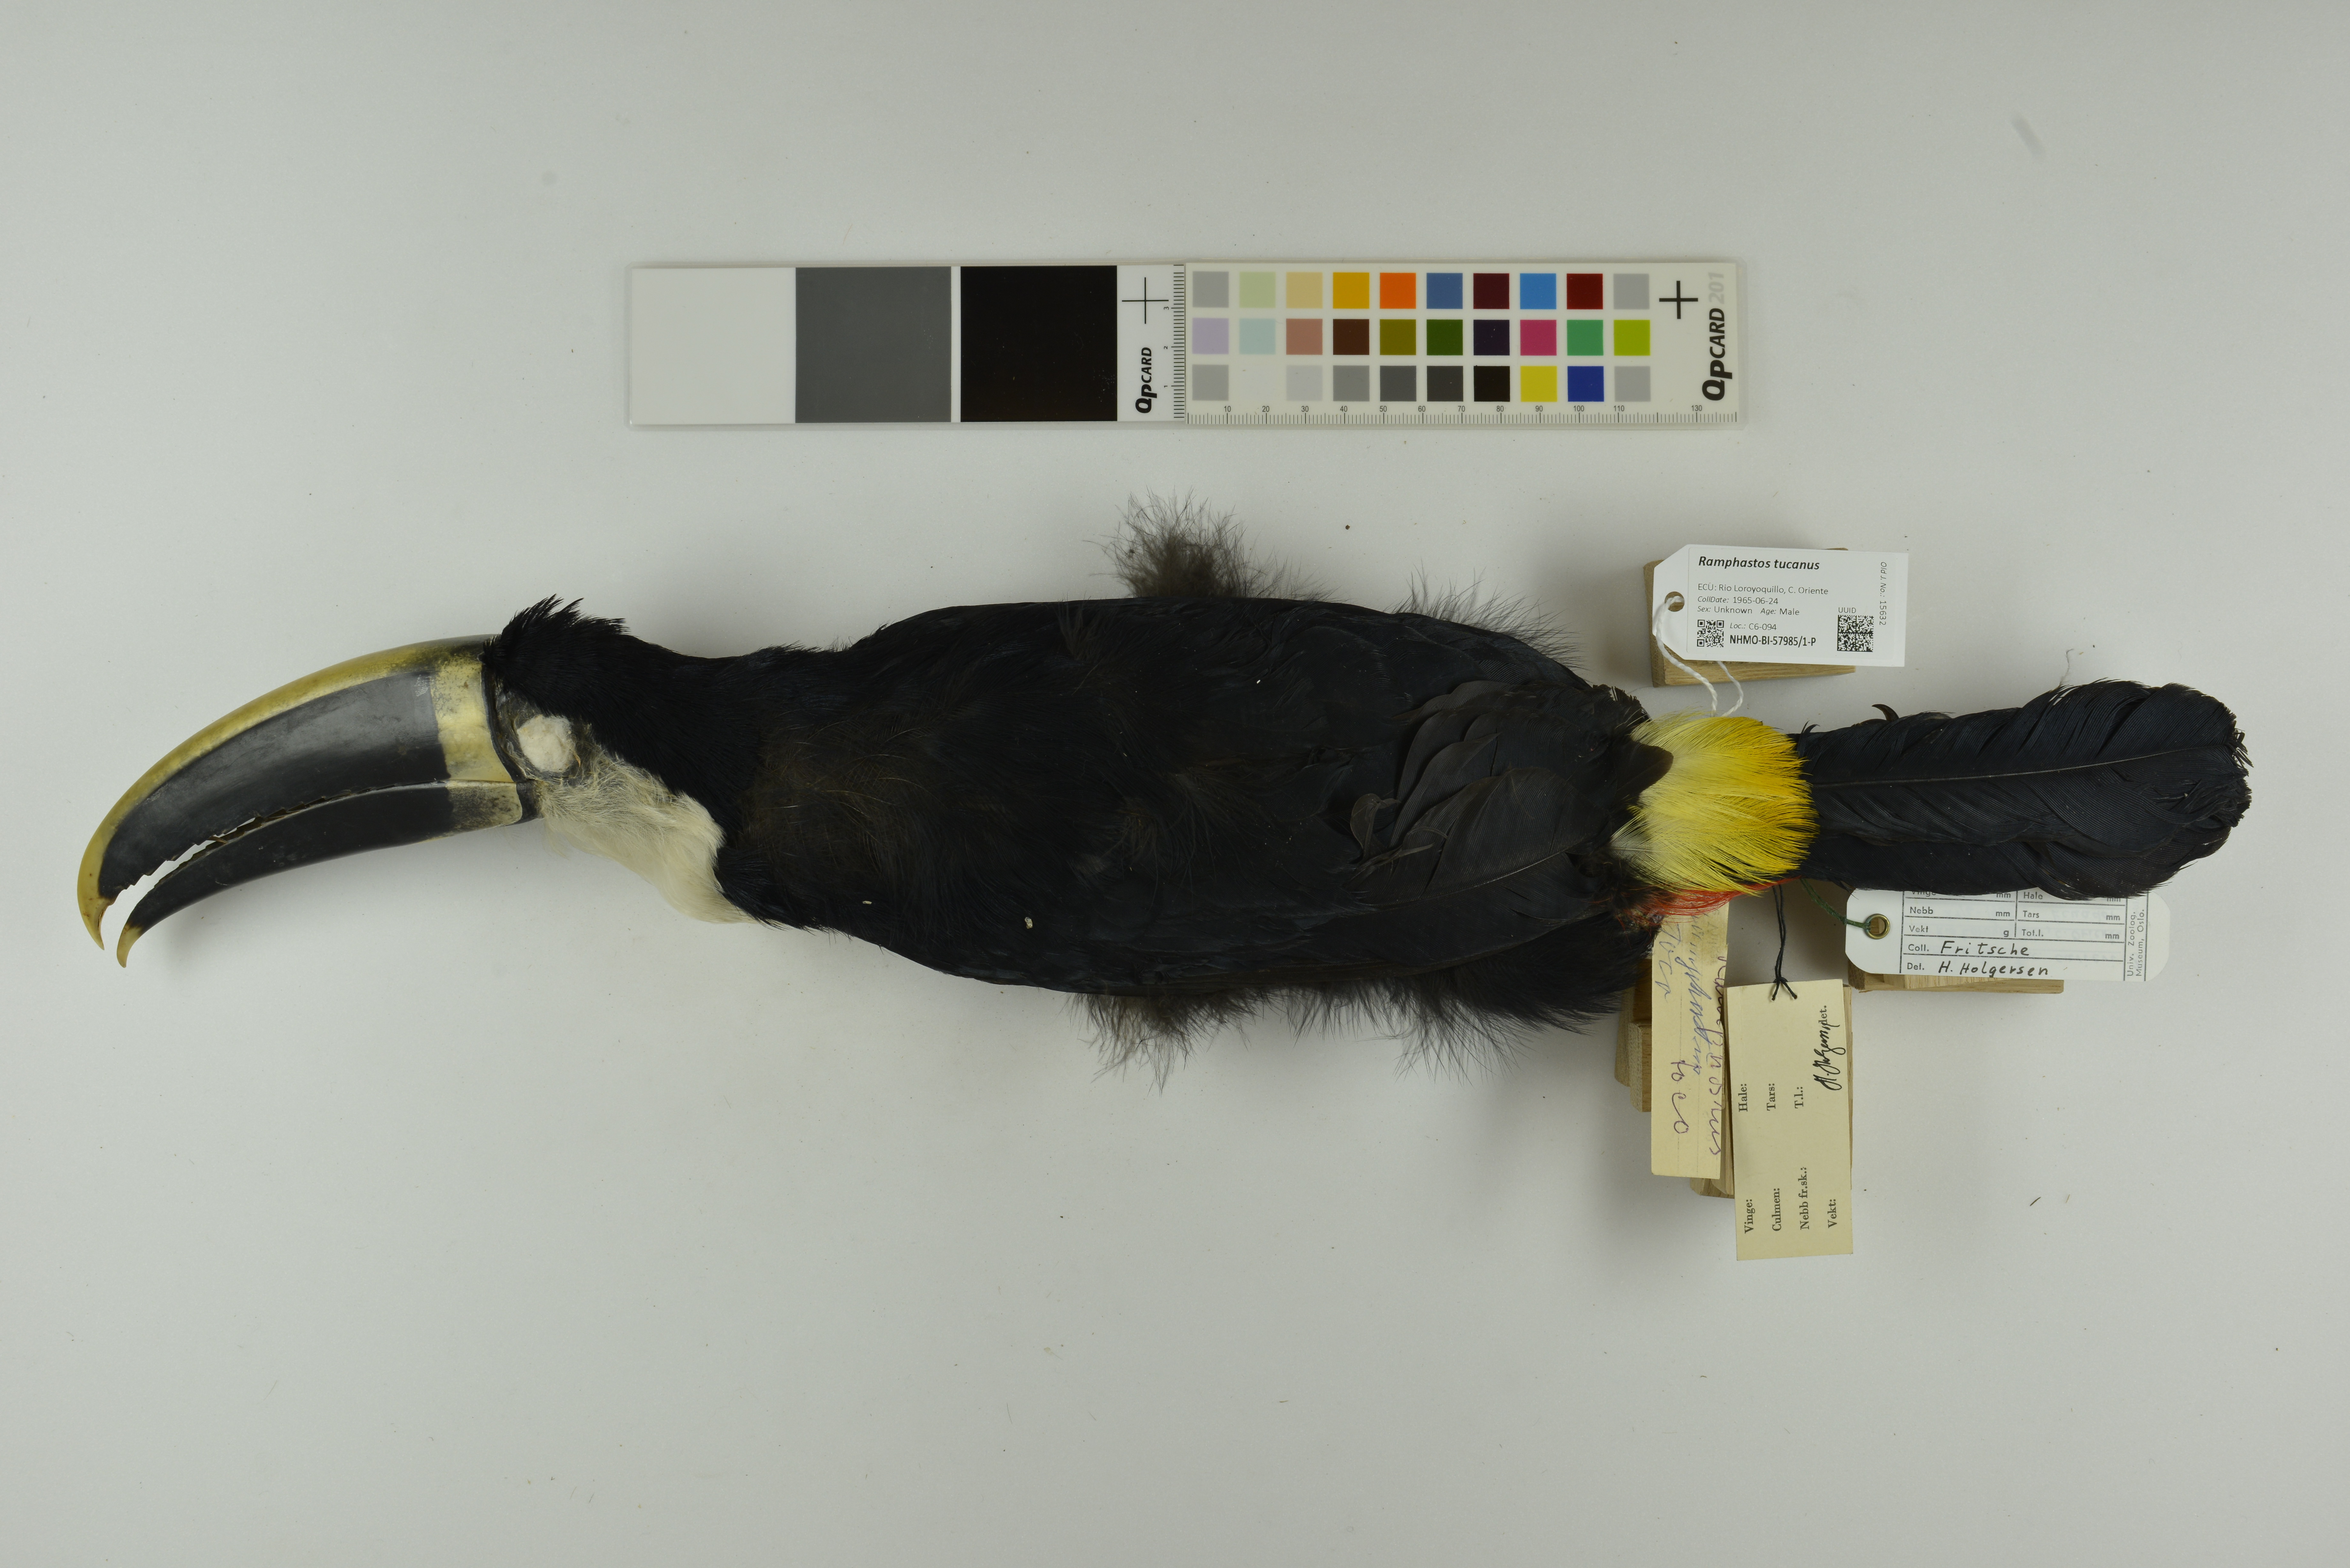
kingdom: Animalia
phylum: Chordata
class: Aves
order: Piciformes
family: Ramphastidae
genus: Ramphastos
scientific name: Ramphastos tucanus
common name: White-throated toucan
